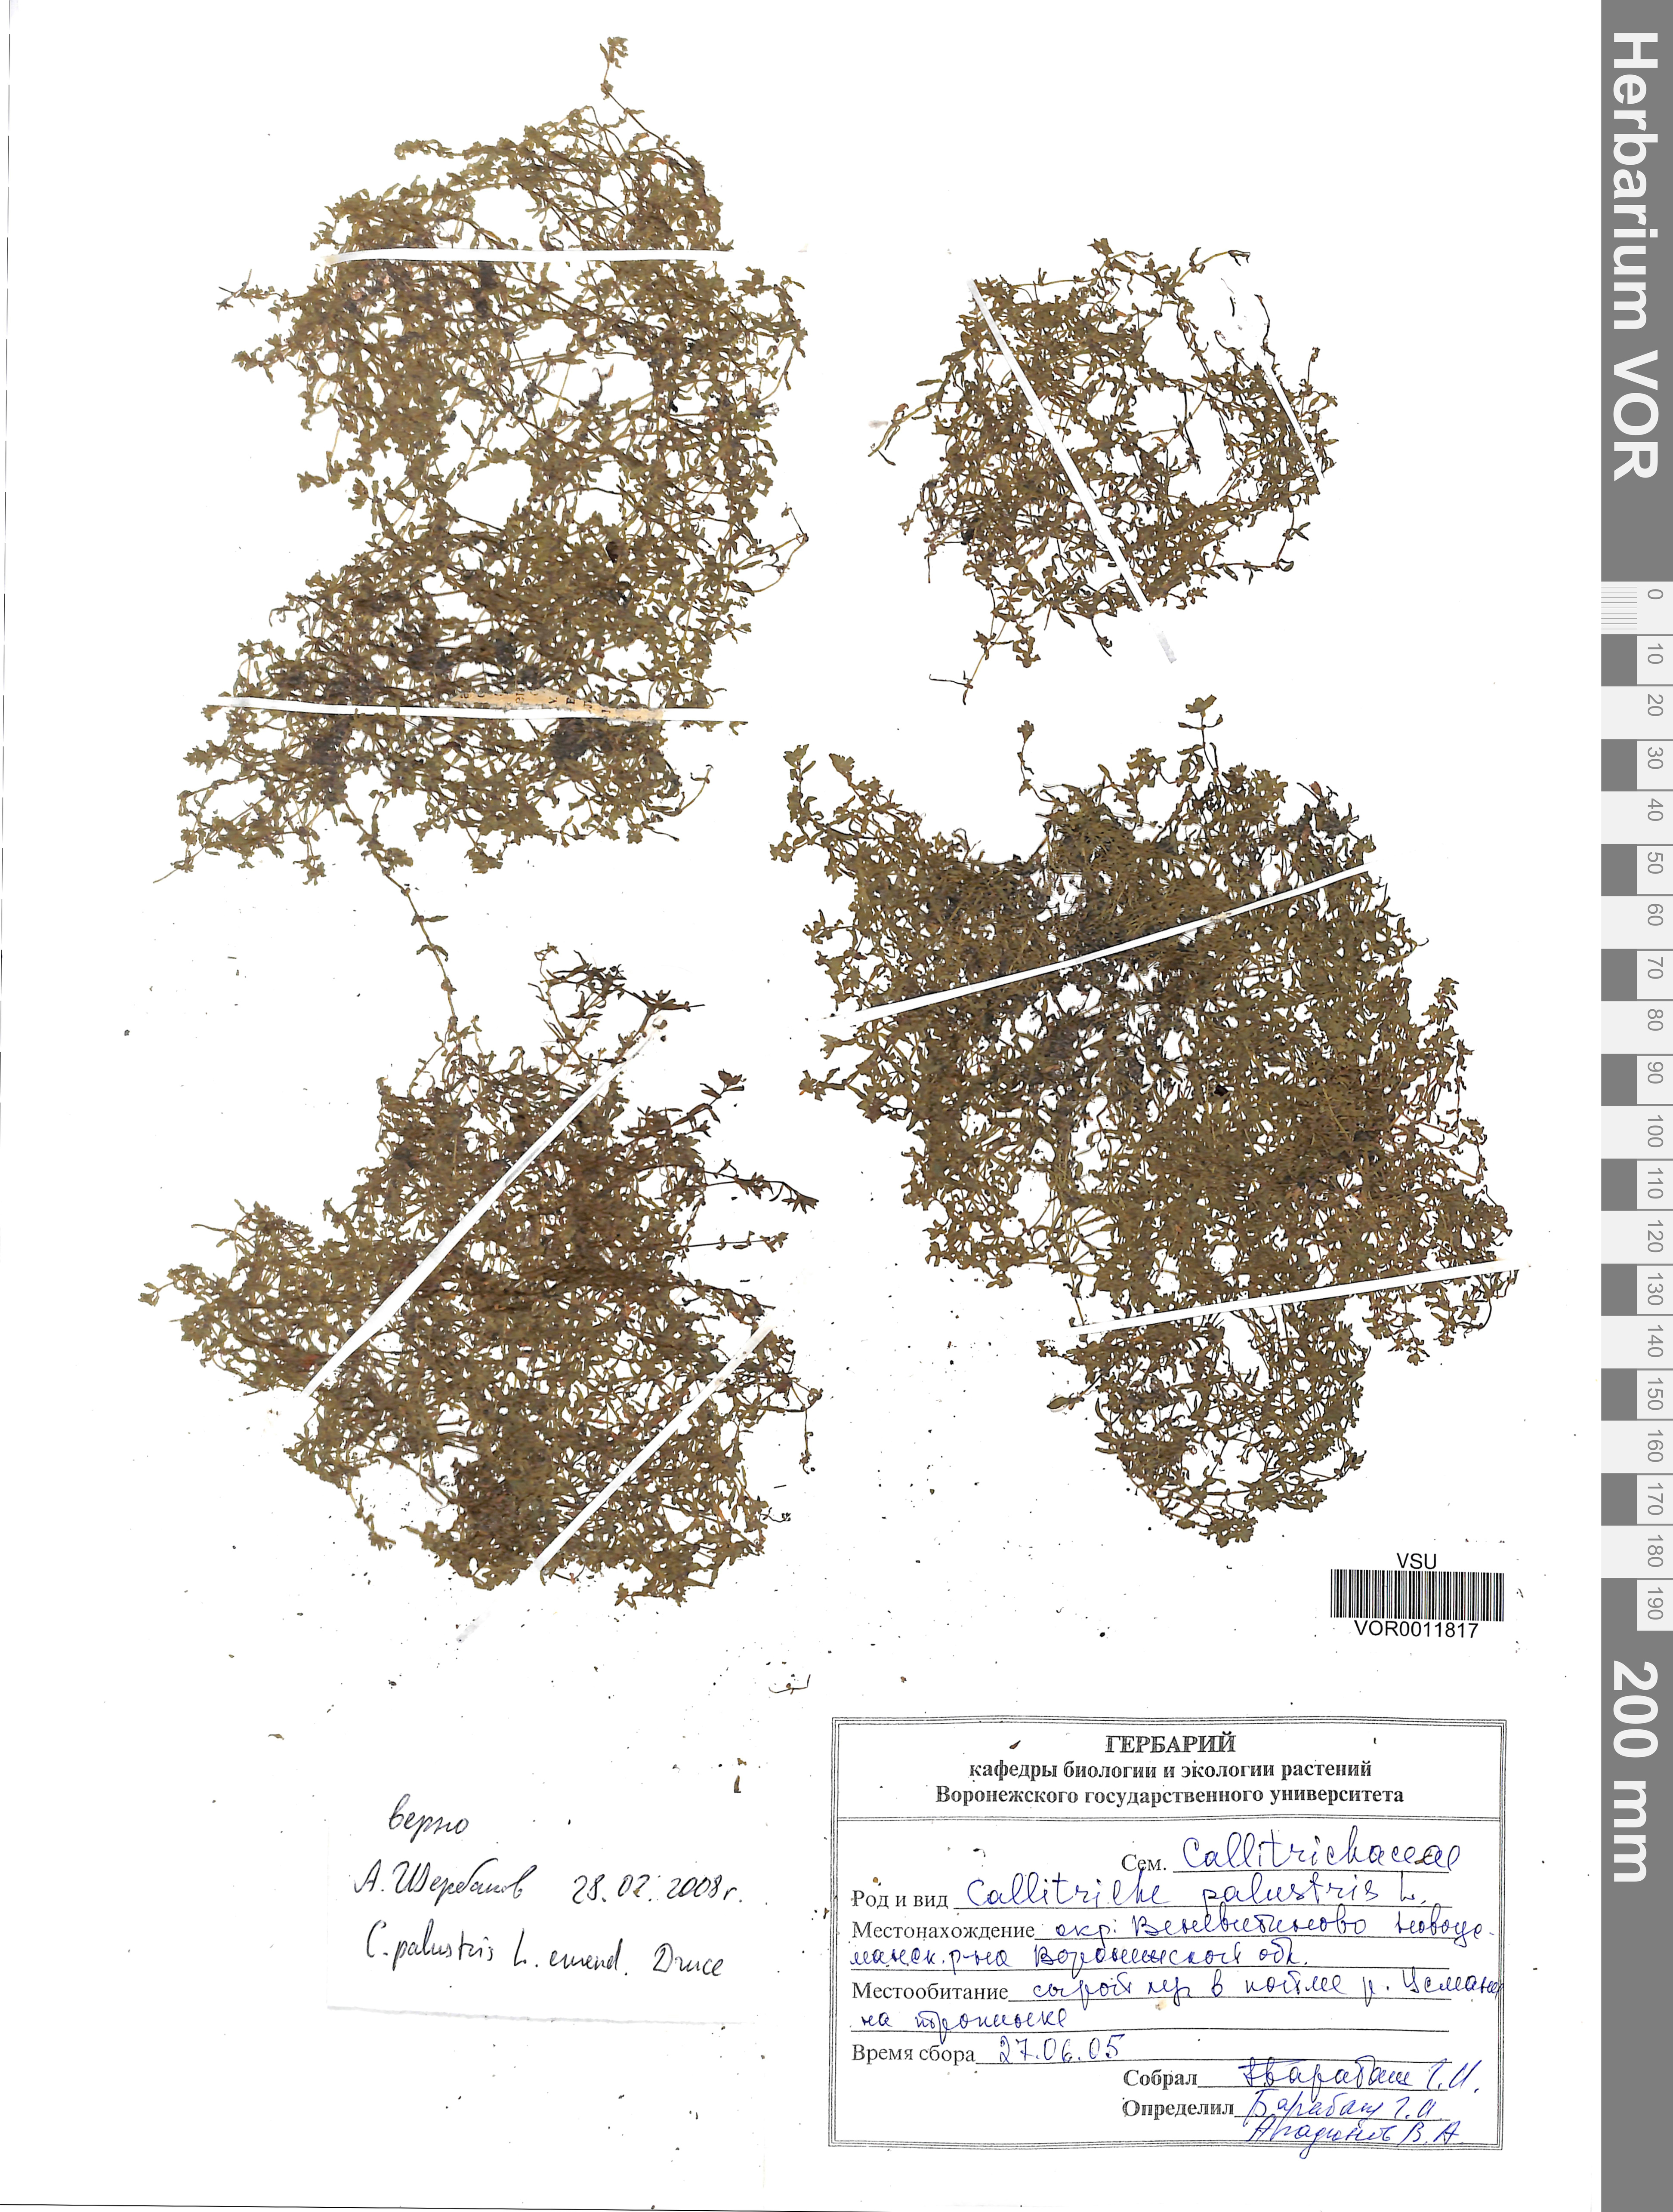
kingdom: Plantae
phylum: Tracheophyta
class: Magnoliopsida
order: Lamiales
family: Plantaginaceae
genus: Callitriche
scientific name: Callitriche palustris
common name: Spring water-starwort
